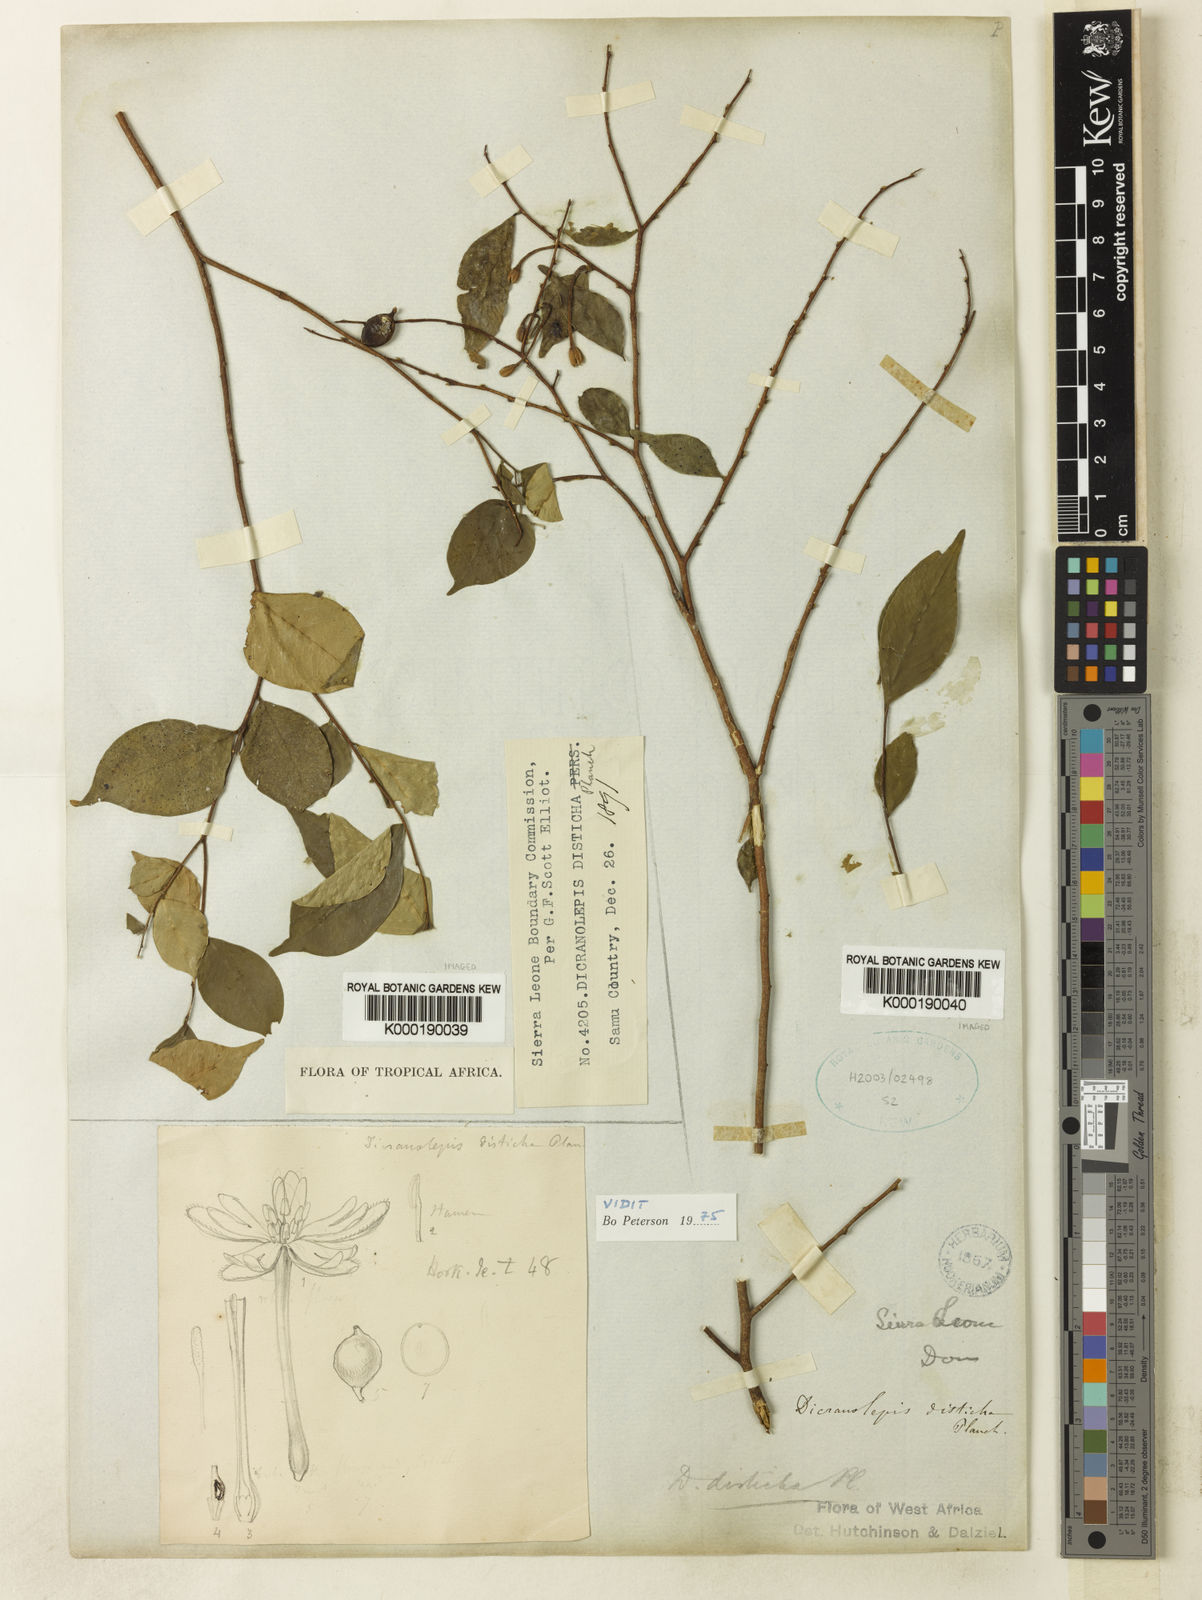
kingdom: Plantae
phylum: Tracheophyta
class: Magnoliopsida
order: Malvales
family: Thymelaeaceae
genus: Dicranolepis
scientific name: Dicranolepis disticha
